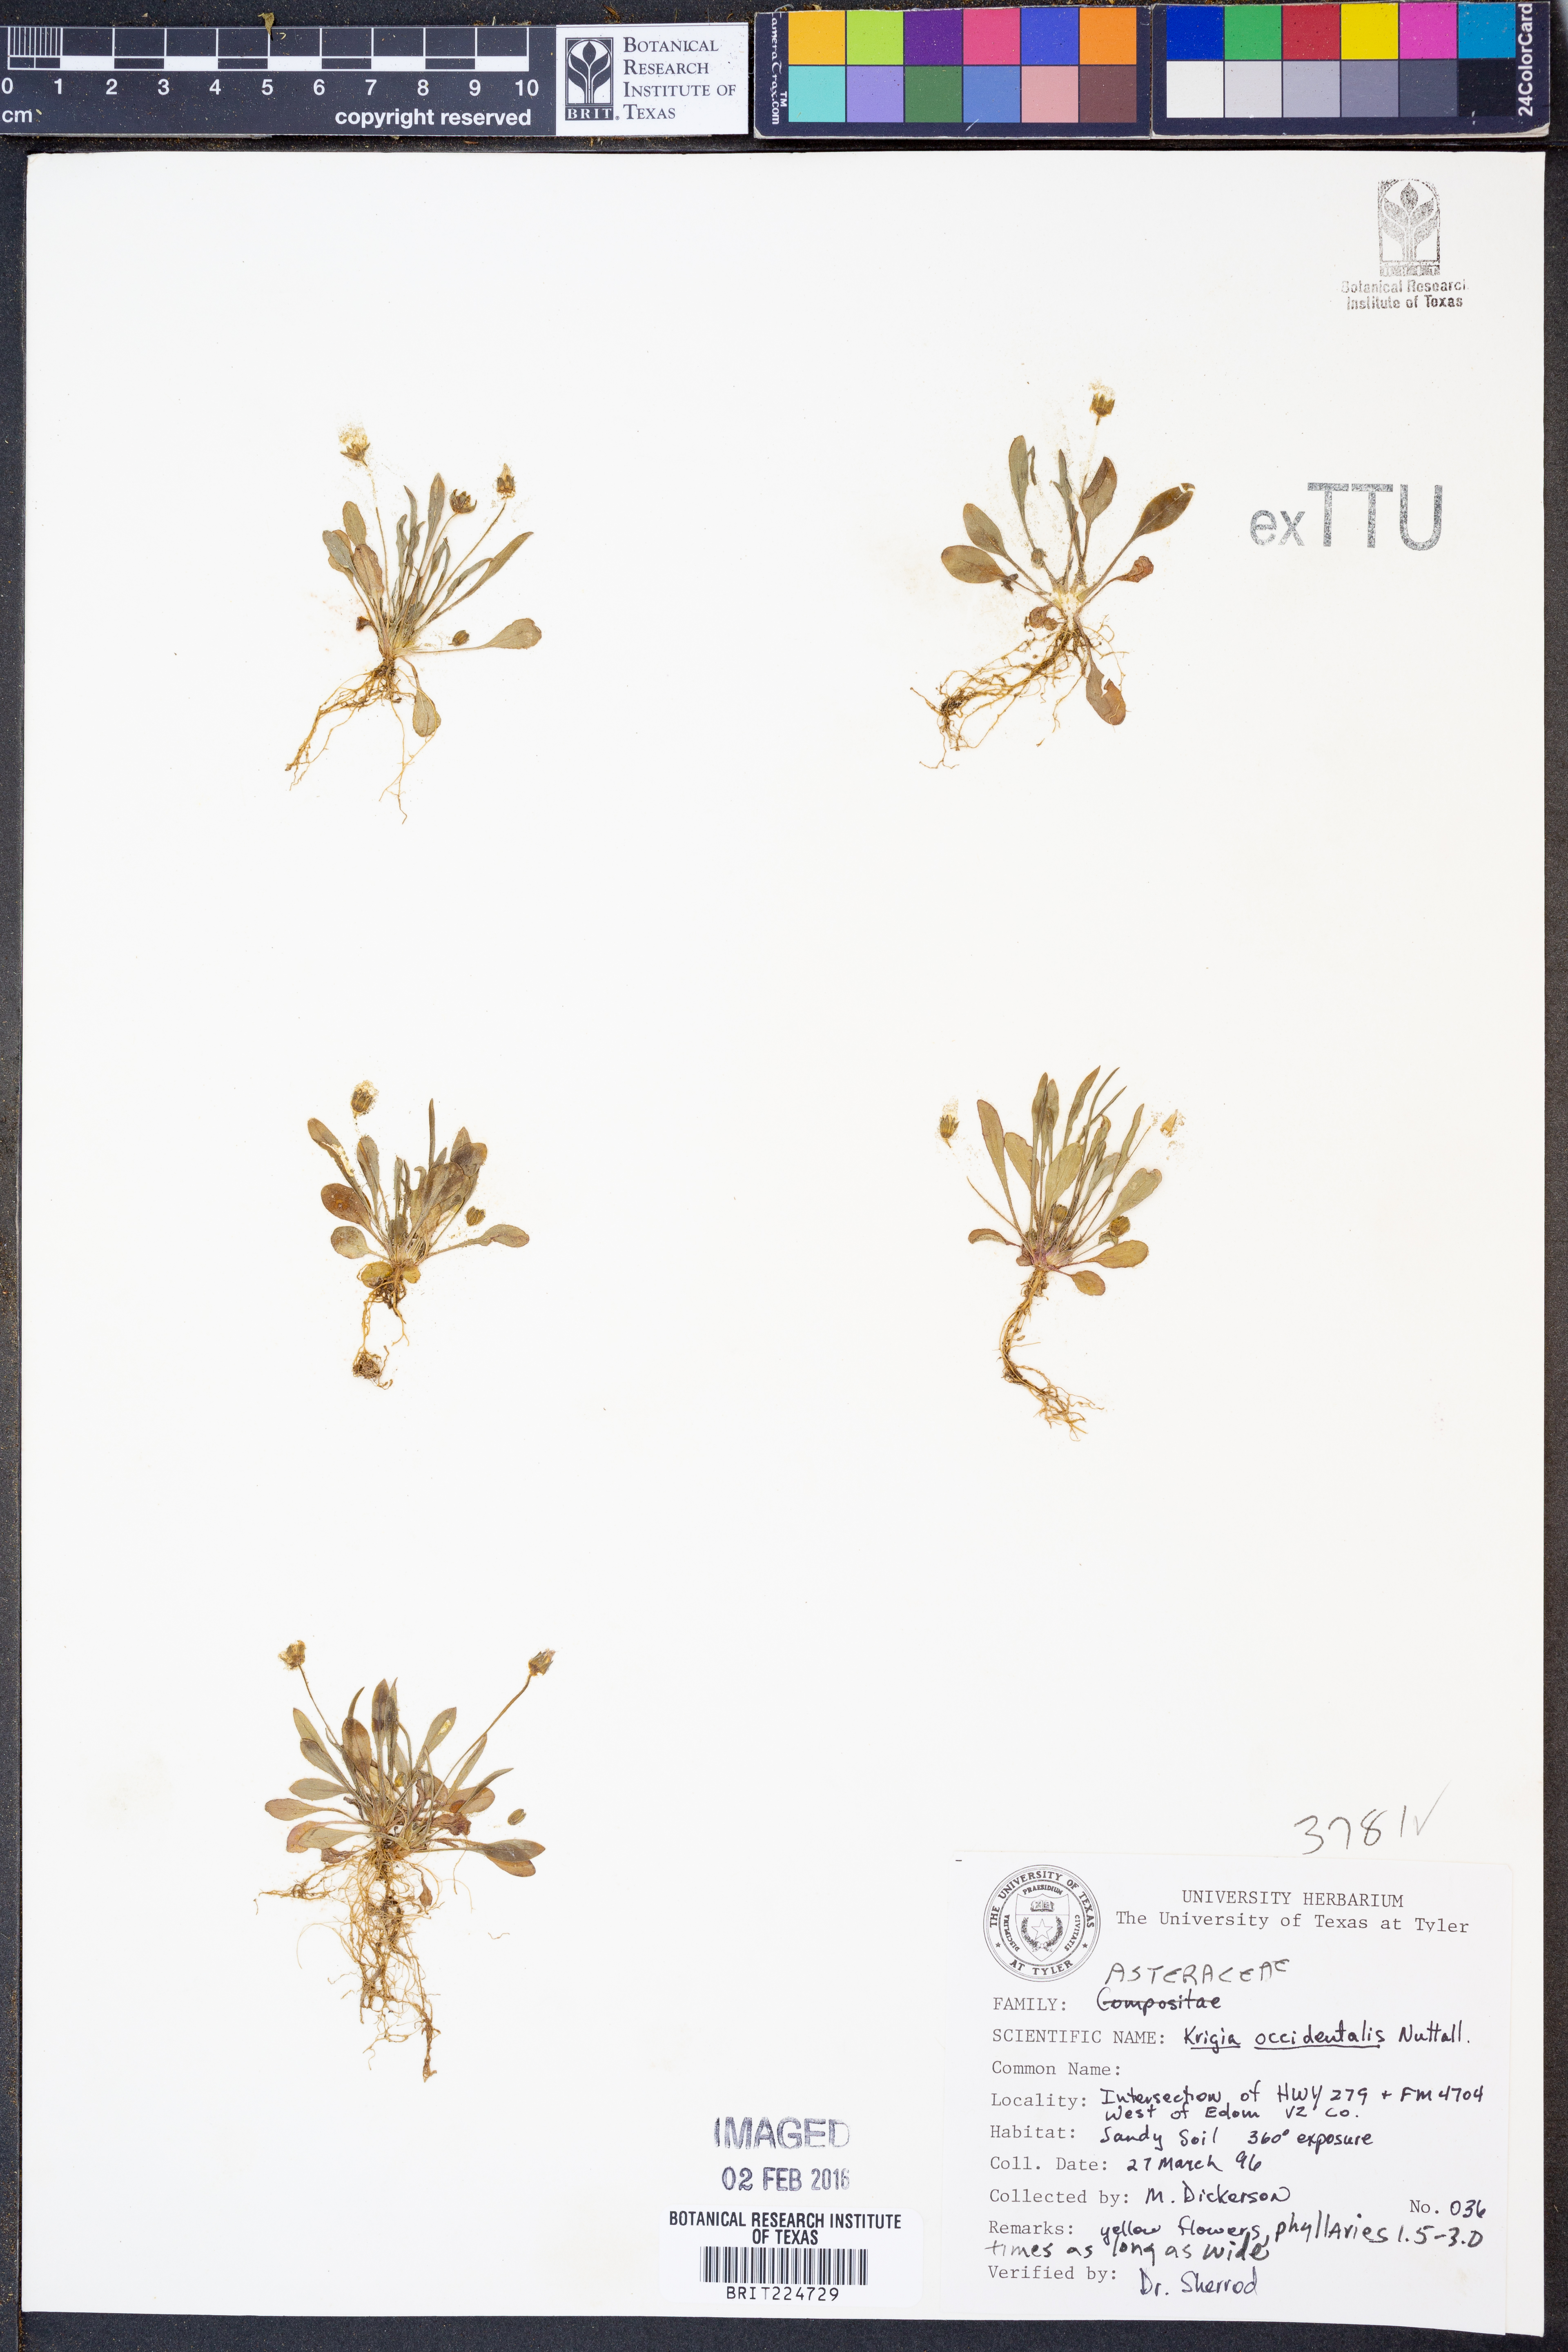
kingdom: Plantae
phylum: Tracheophyta
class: Magnoliopsida
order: Asterales
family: Asteraceae
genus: Krigia
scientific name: Krigia occidentalis
